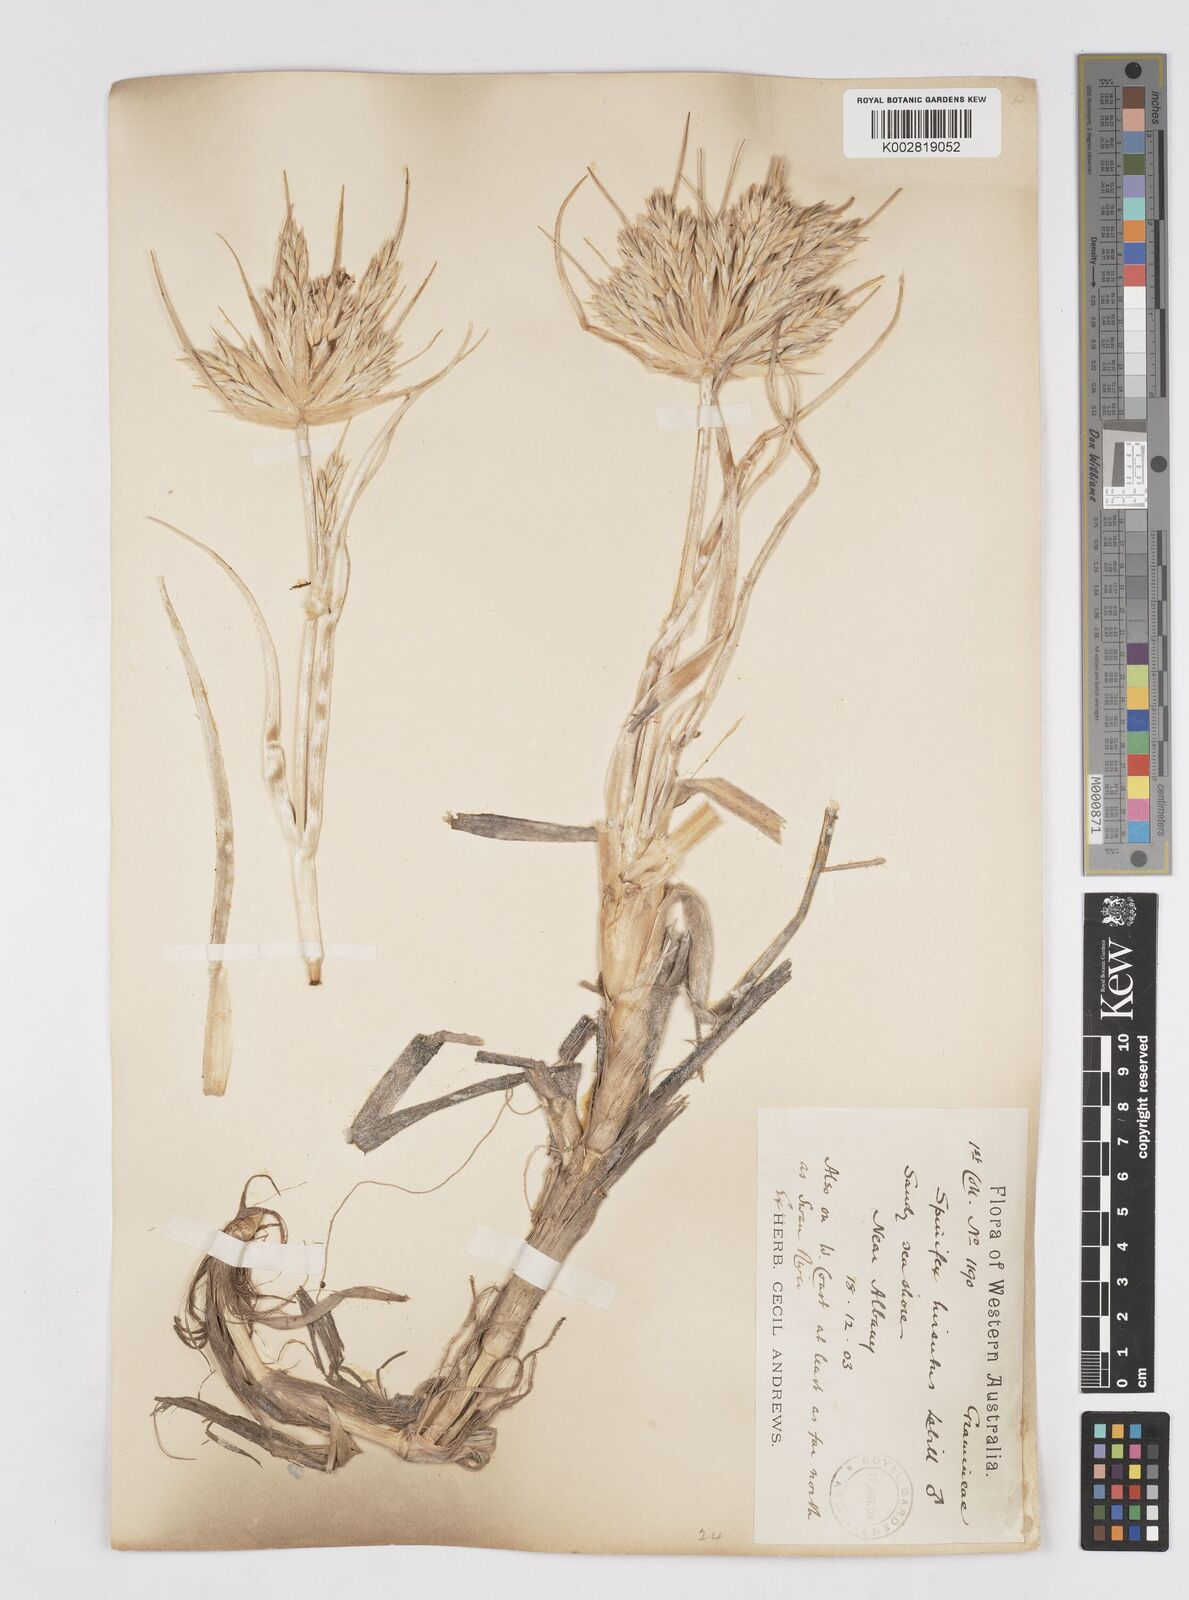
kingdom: Plantae
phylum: Tracheophyta
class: Liliopsida
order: Poales
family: Poaceae
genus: Spinifex
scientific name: Spinifex hirsutus
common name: Hairy spinifex
